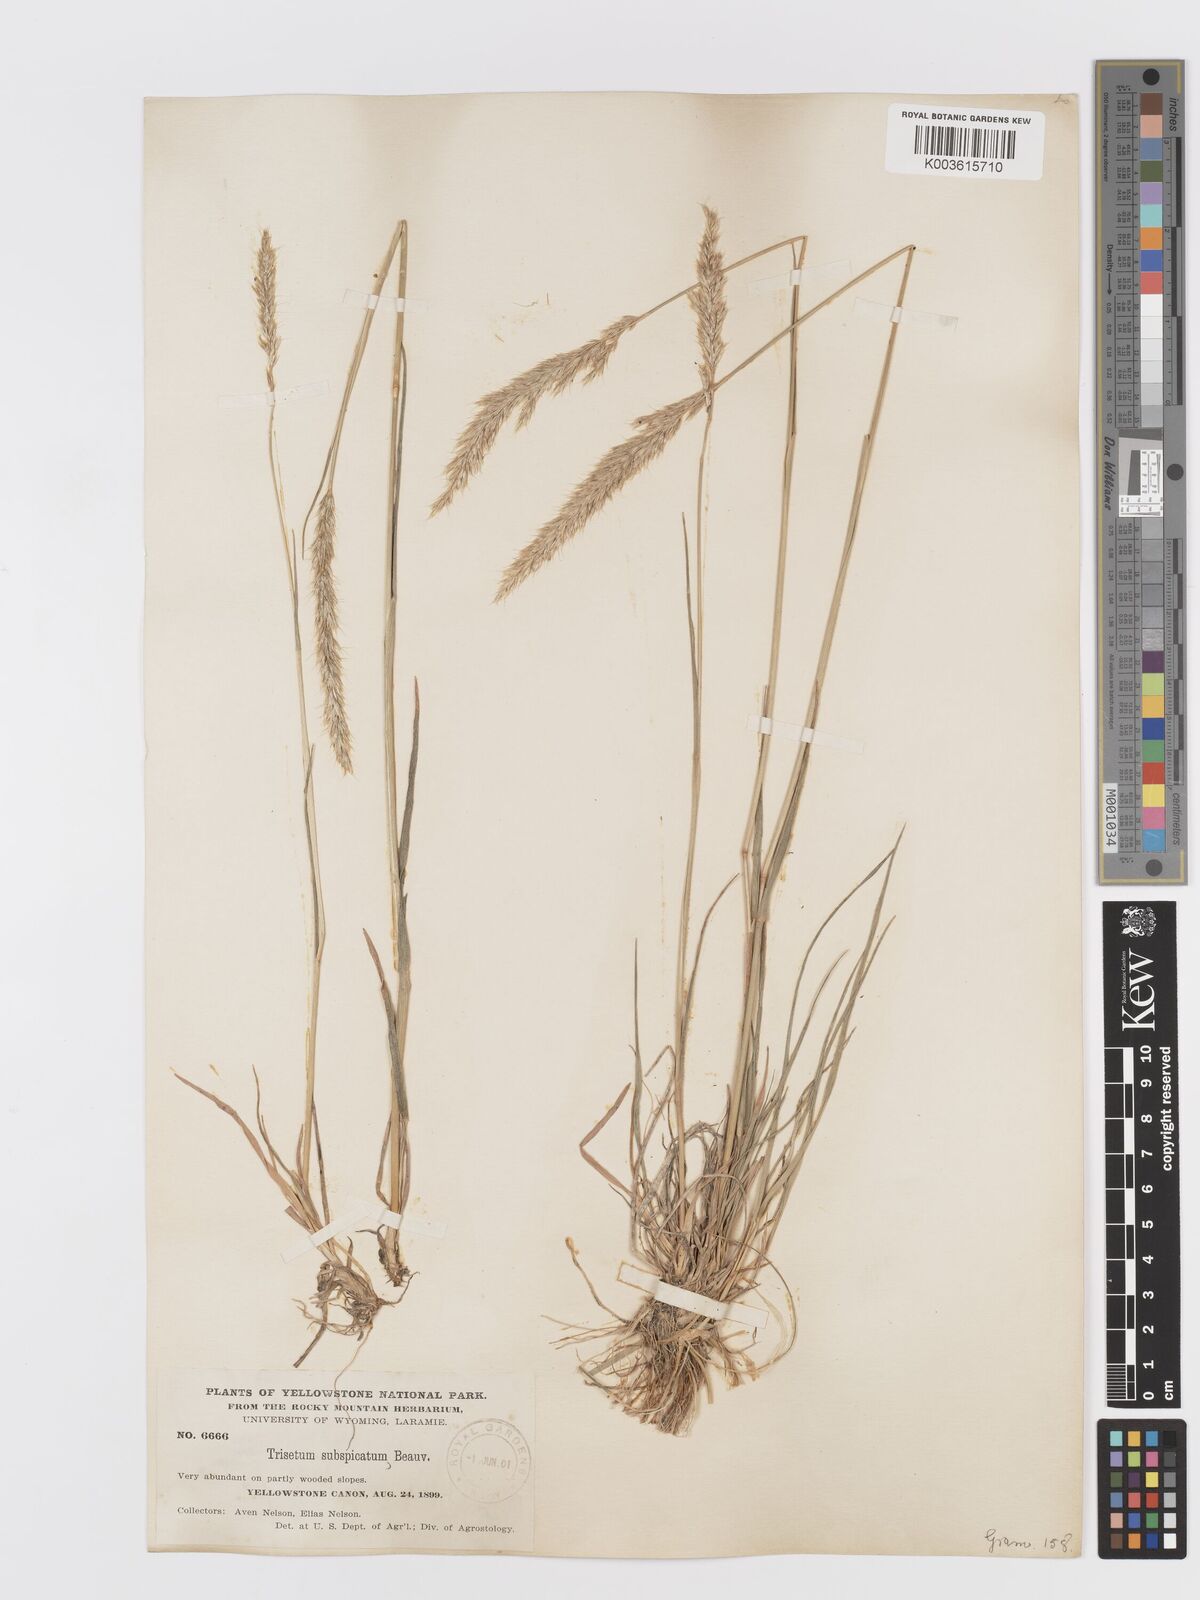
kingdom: Plantae
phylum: Tracheophyta
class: Liliopsida
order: Poales
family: Poaceae
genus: Koeleria
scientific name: Koeleria spicata
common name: Mountain trisetum
